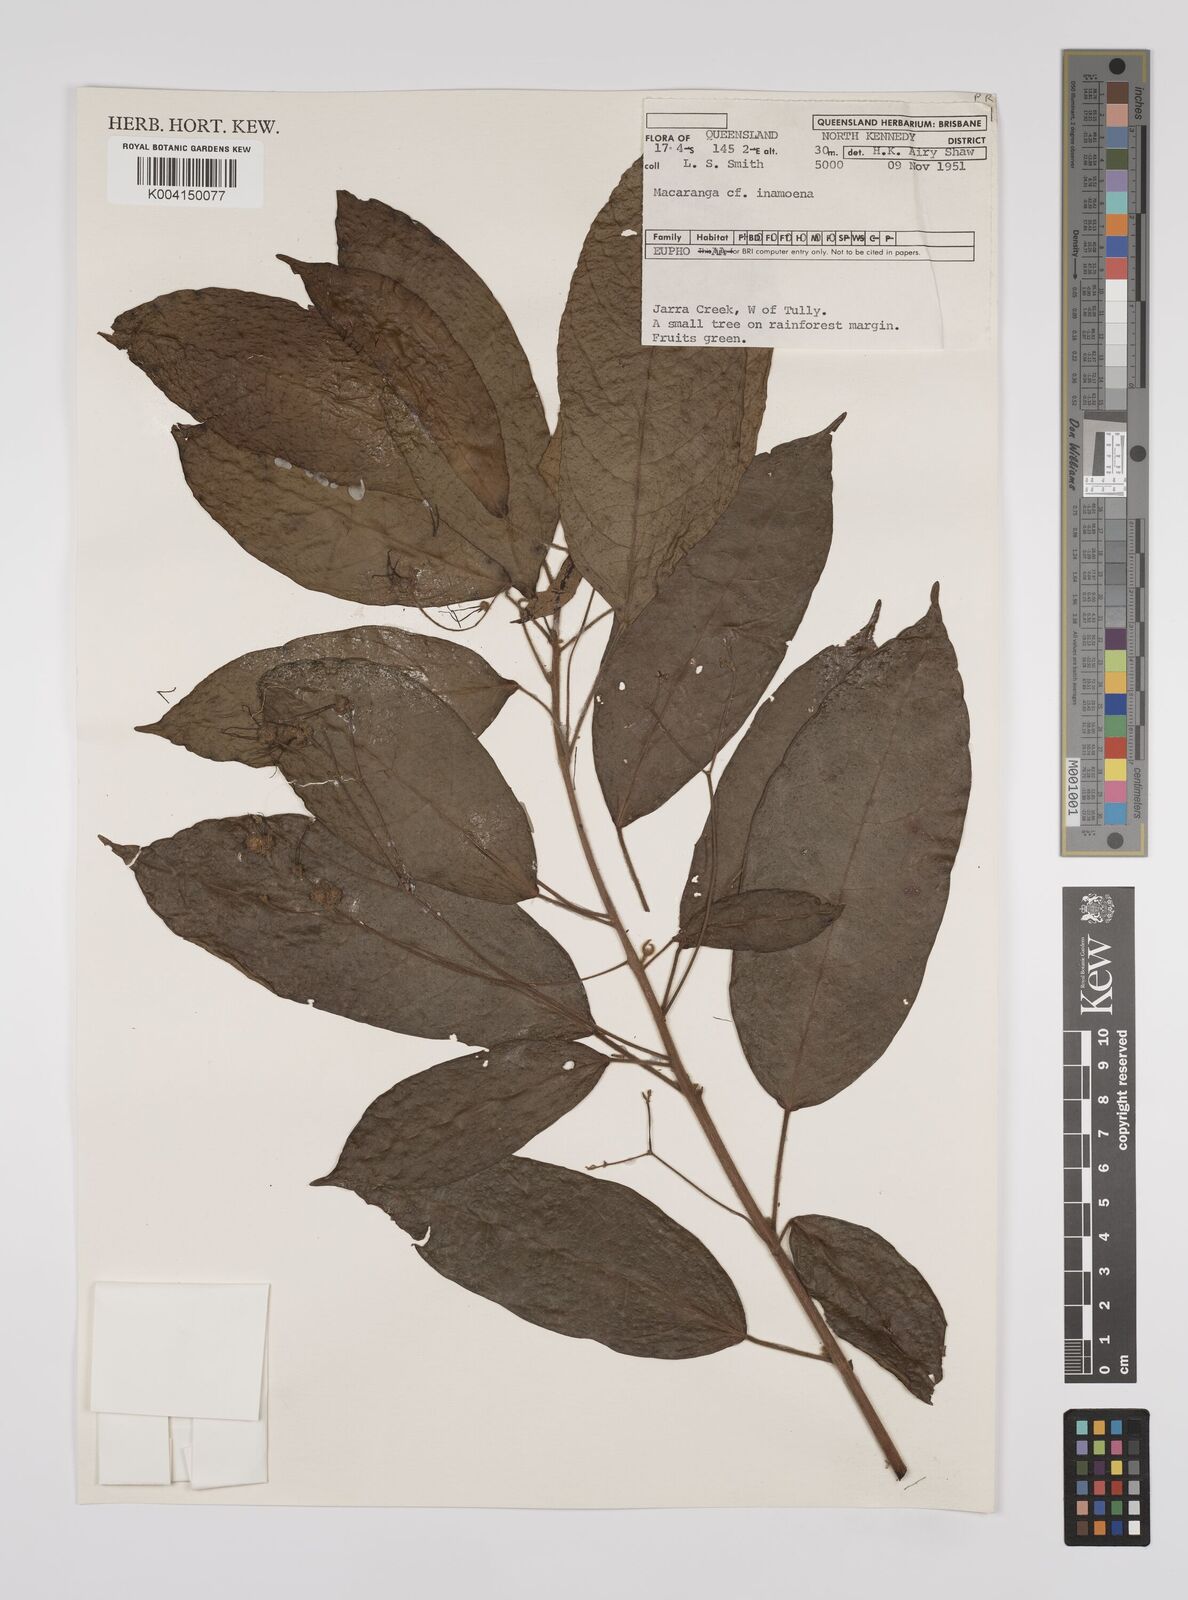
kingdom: Plantae
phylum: Tracheophyta
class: Magnoliopsida
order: Malpighiales
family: Euphorbiaceae
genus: Macaranga
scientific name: Macaranga inamoena
